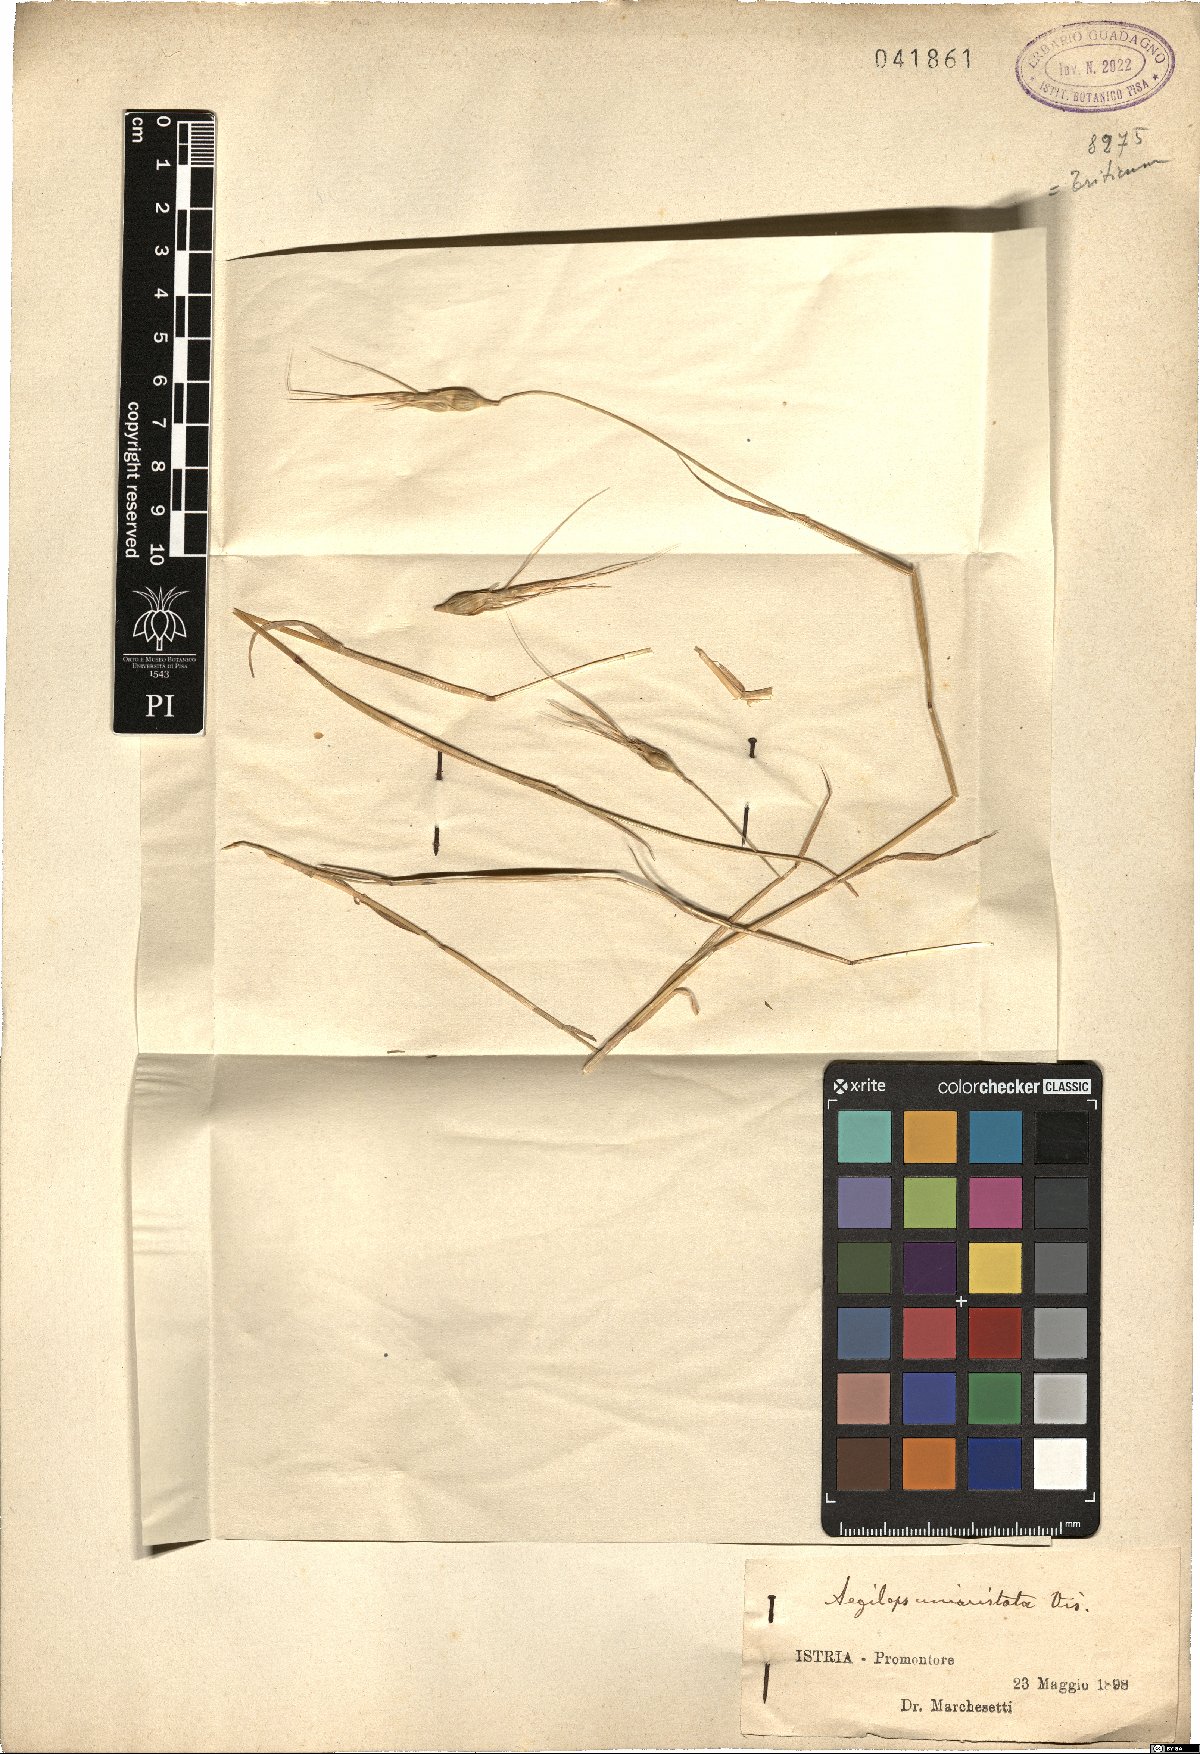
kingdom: Plantae
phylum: Tracheophyta
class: Liliopsida
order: Poales
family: Poaceae
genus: Aegilops
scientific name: Aegilops uniaristata
